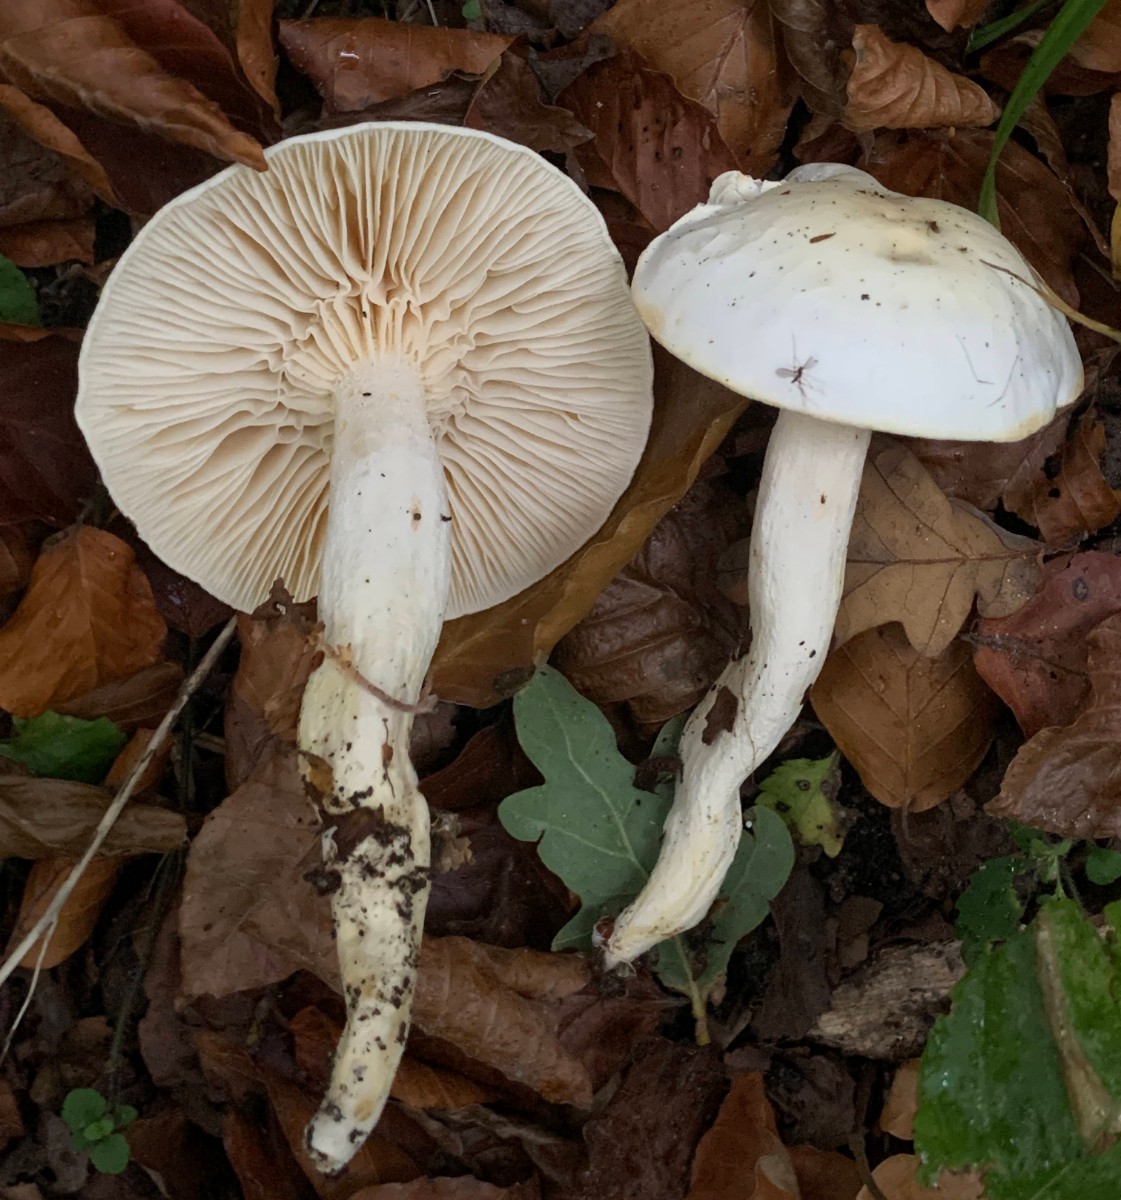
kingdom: Fungi
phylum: Basidiomycota
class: Agaricomycetes
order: Agaricales
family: Hygrophoraceae
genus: Hygrophorus
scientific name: Hygrophorus discoxanthus
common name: ildelugtende sneglehat
